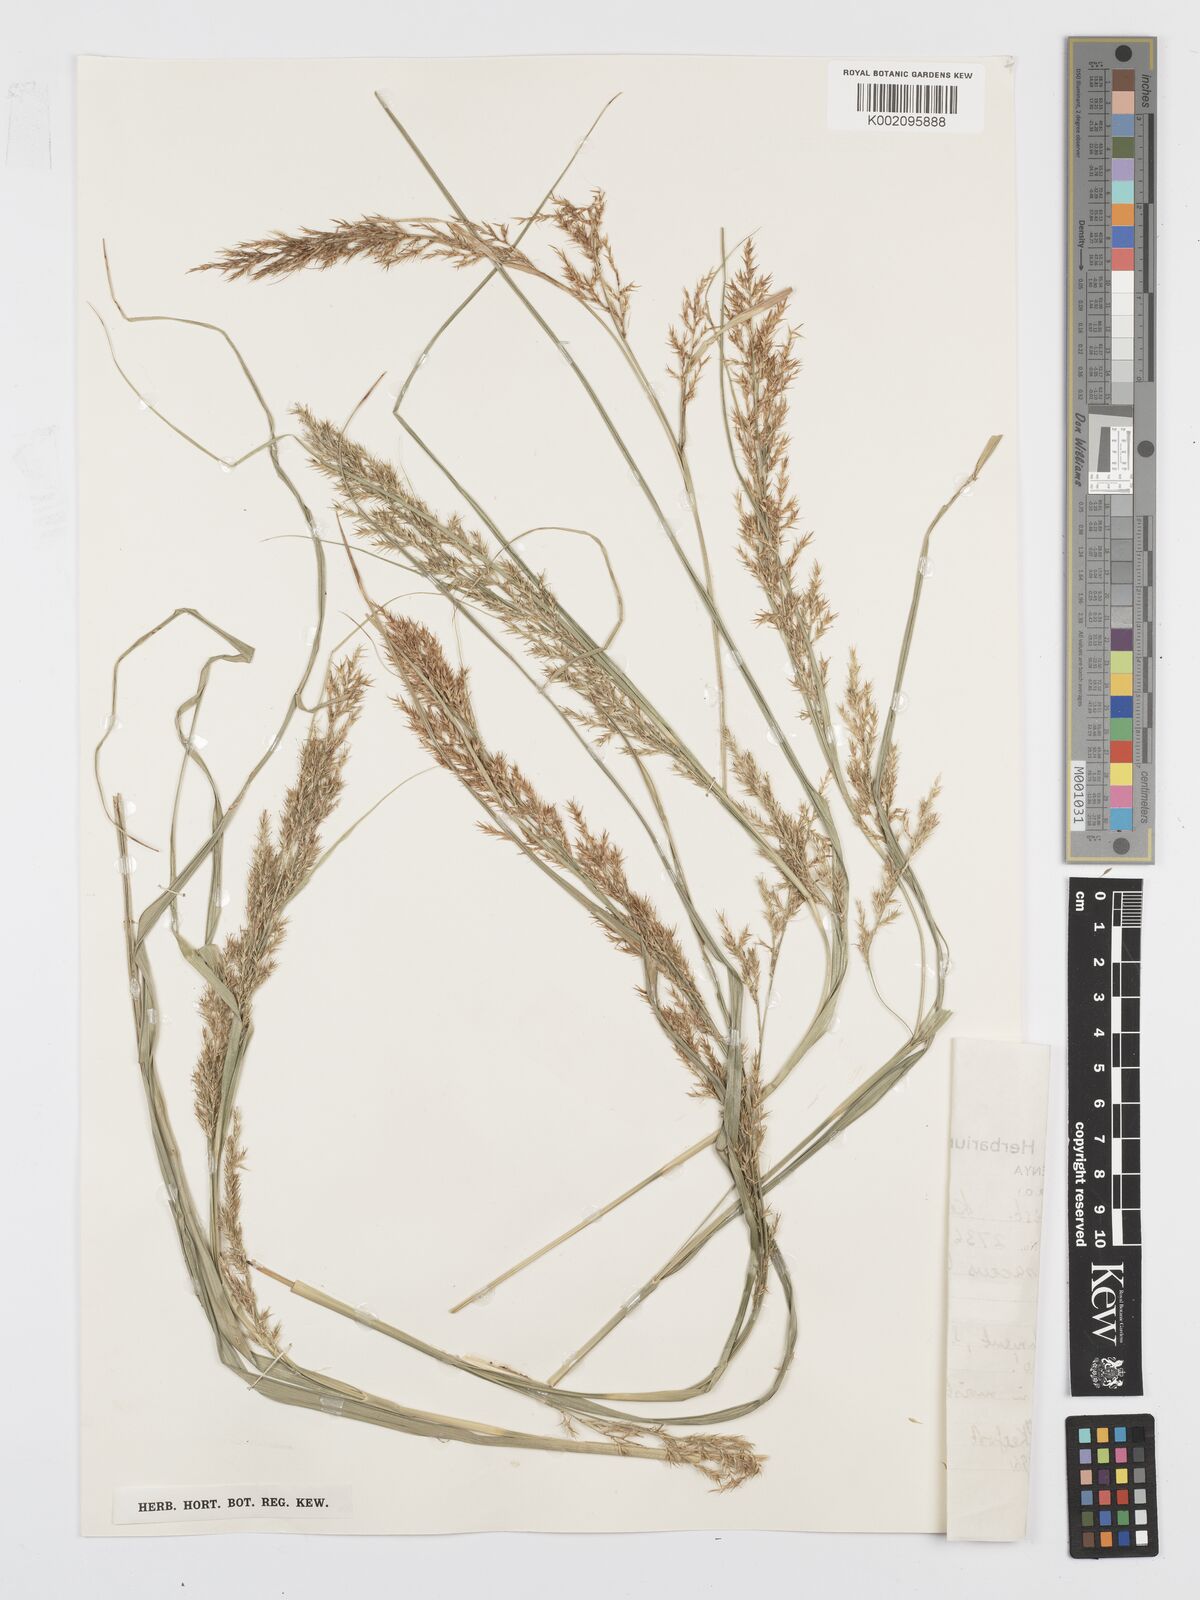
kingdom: Plantae
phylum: Tracheophyta
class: Liliopsida
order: Poales
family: Cyperaceae
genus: Carex
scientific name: Carex chlorosaccus
